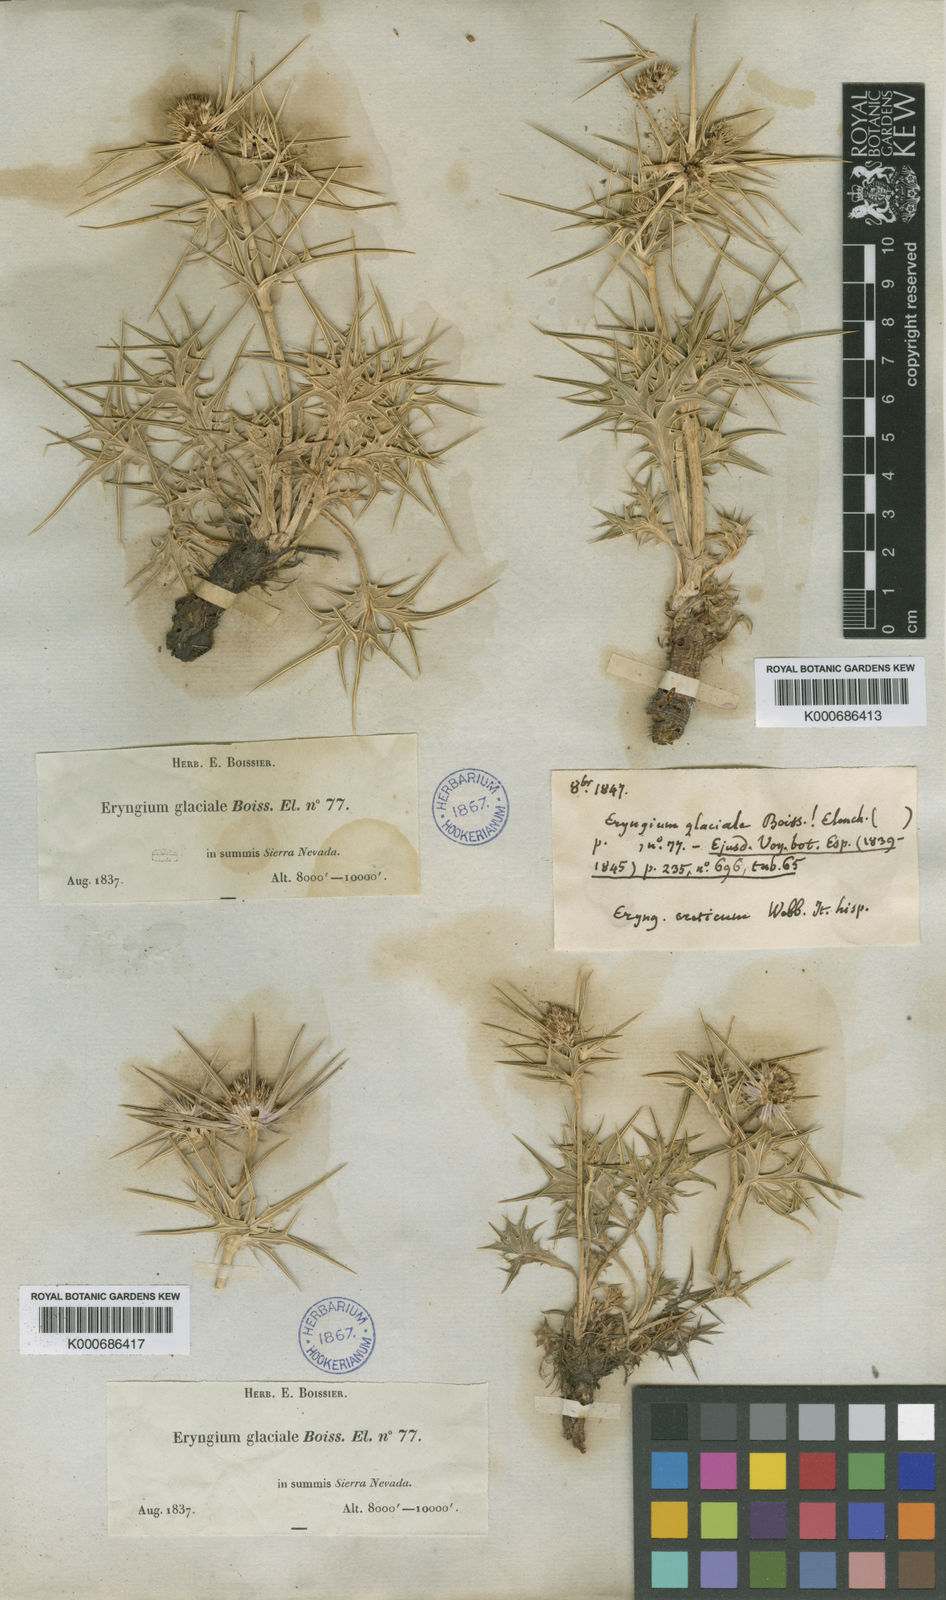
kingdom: Plantae
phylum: Tracheophyta
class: Magnoliopsida
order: Apiales
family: Apiaceae
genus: Eryngium
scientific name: Eryngium glaciale
